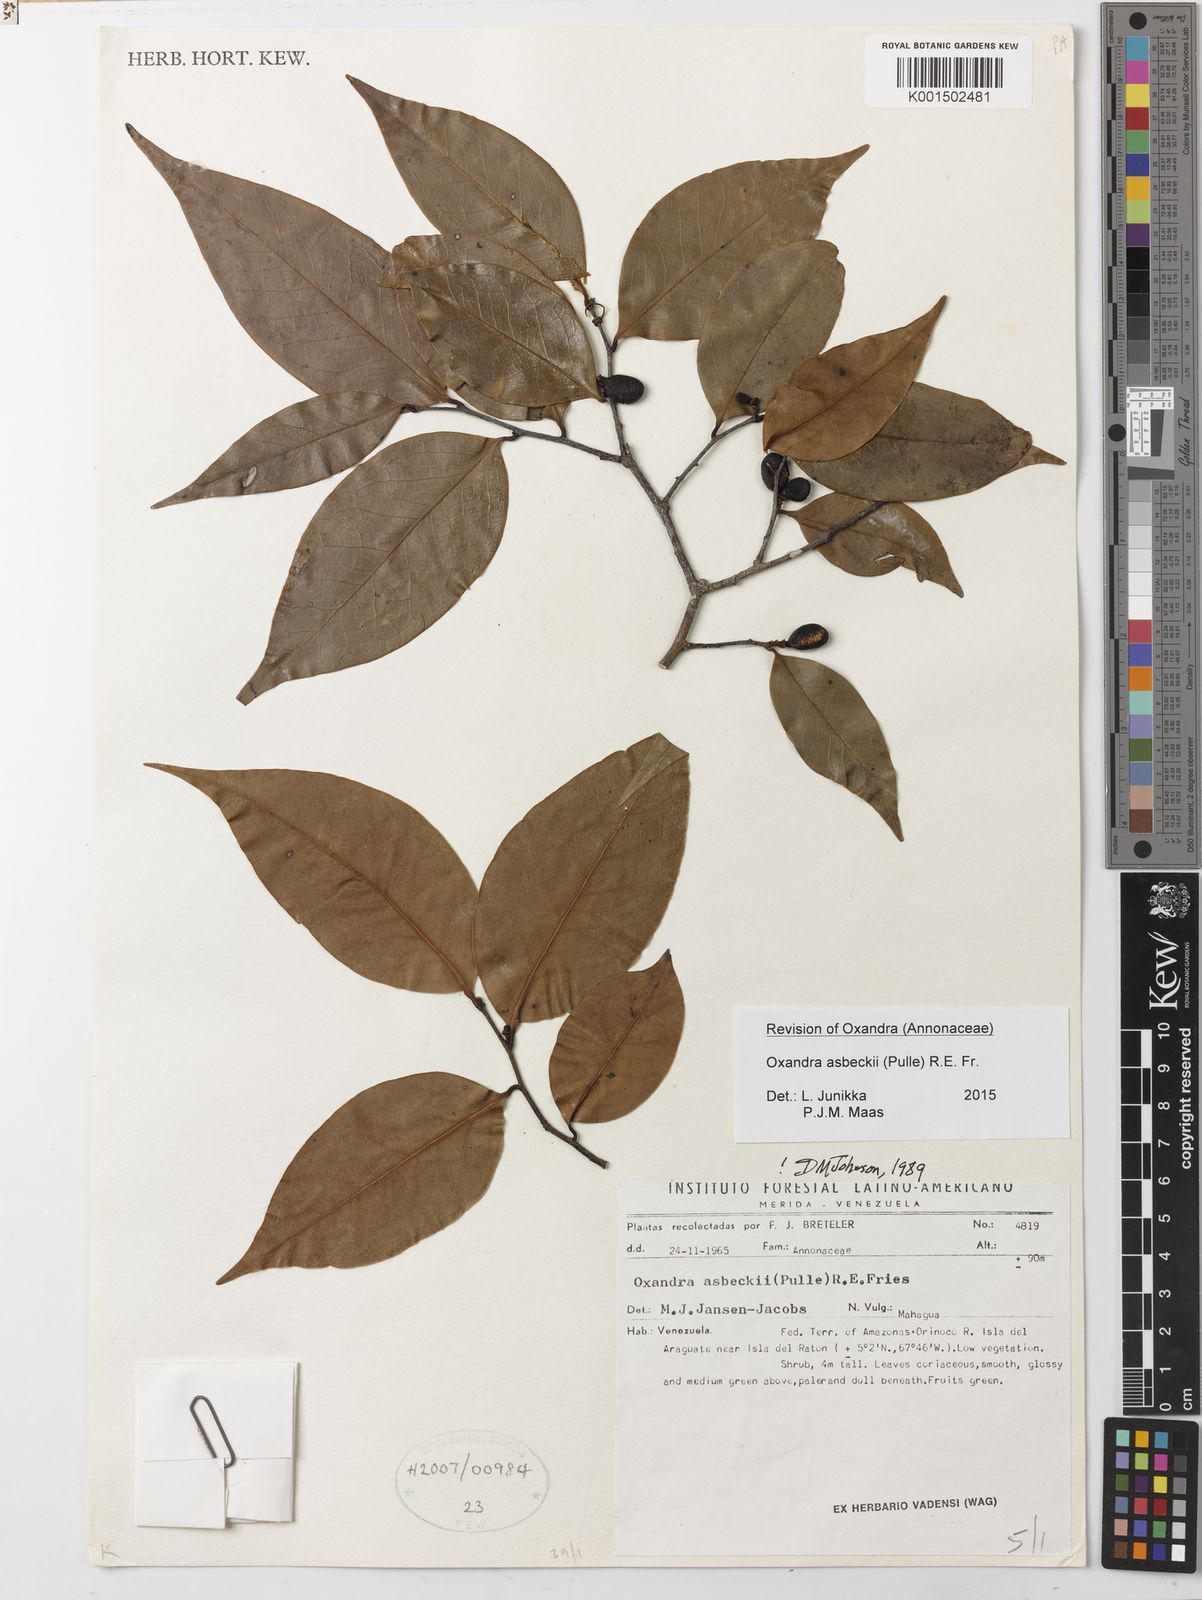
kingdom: Plantae
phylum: Tracheophyta
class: Magnoliopsida
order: Magnoliales
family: Annonaceae
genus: Oxandra
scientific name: Oxandra asbeckii
